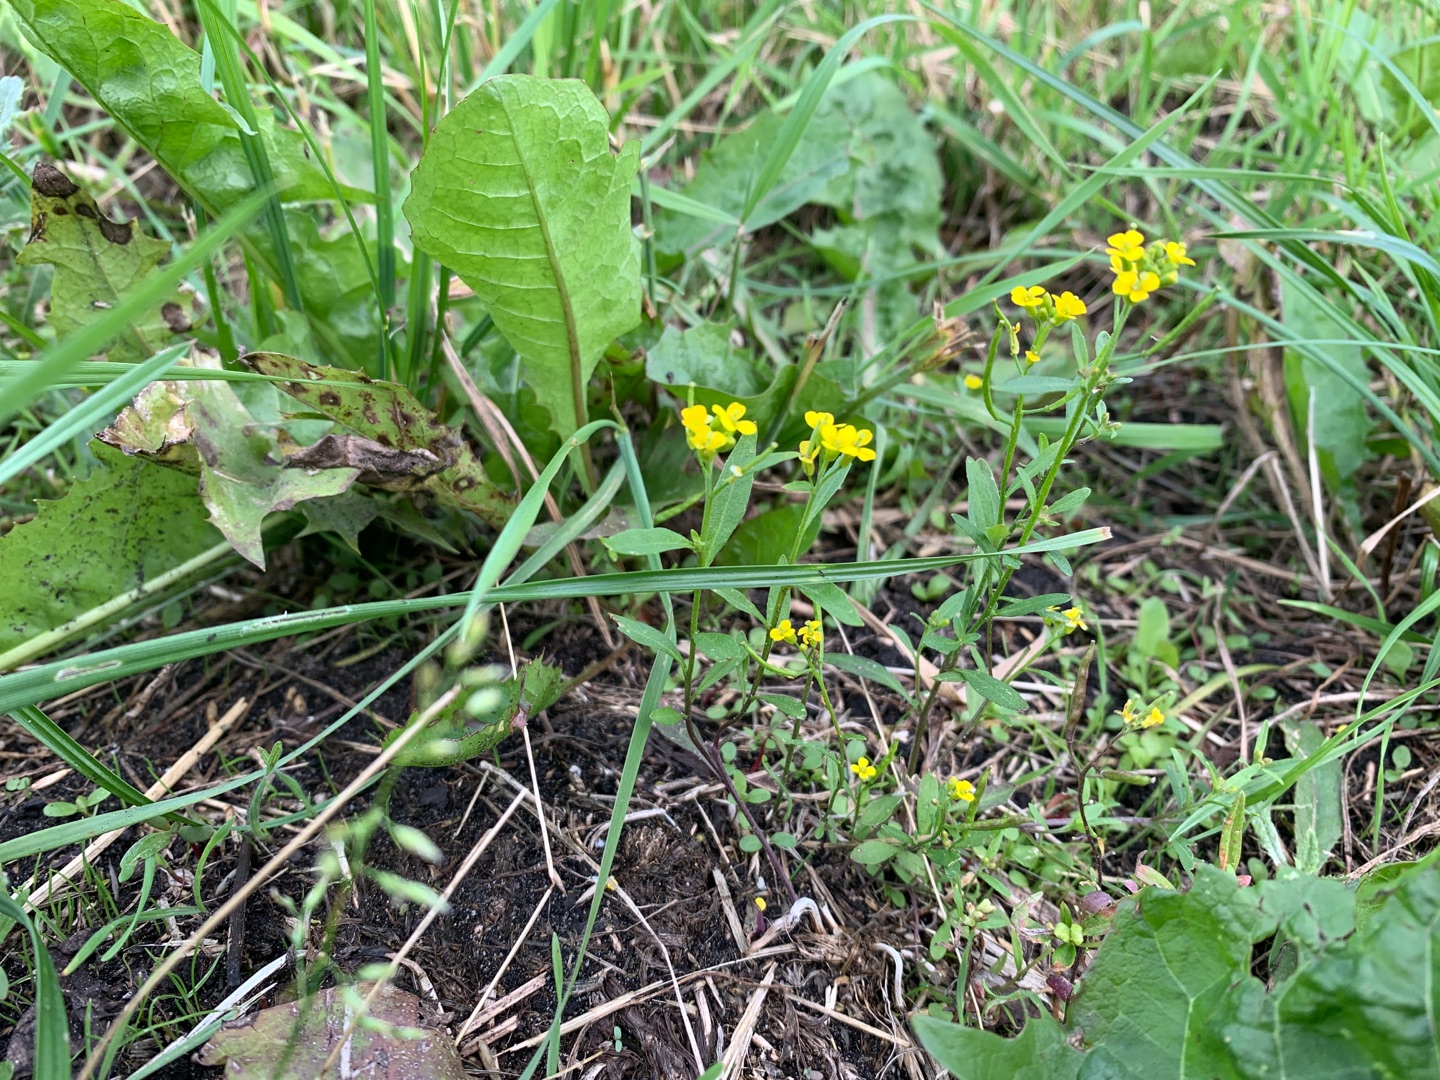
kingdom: Plantae
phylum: Tracheophyta
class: Magnoliopsida
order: Brassicales
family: Brassicaceae
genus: Erysimum
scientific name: Erysimum cheiranthoides
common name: Gyldenlak-hjørneklap
